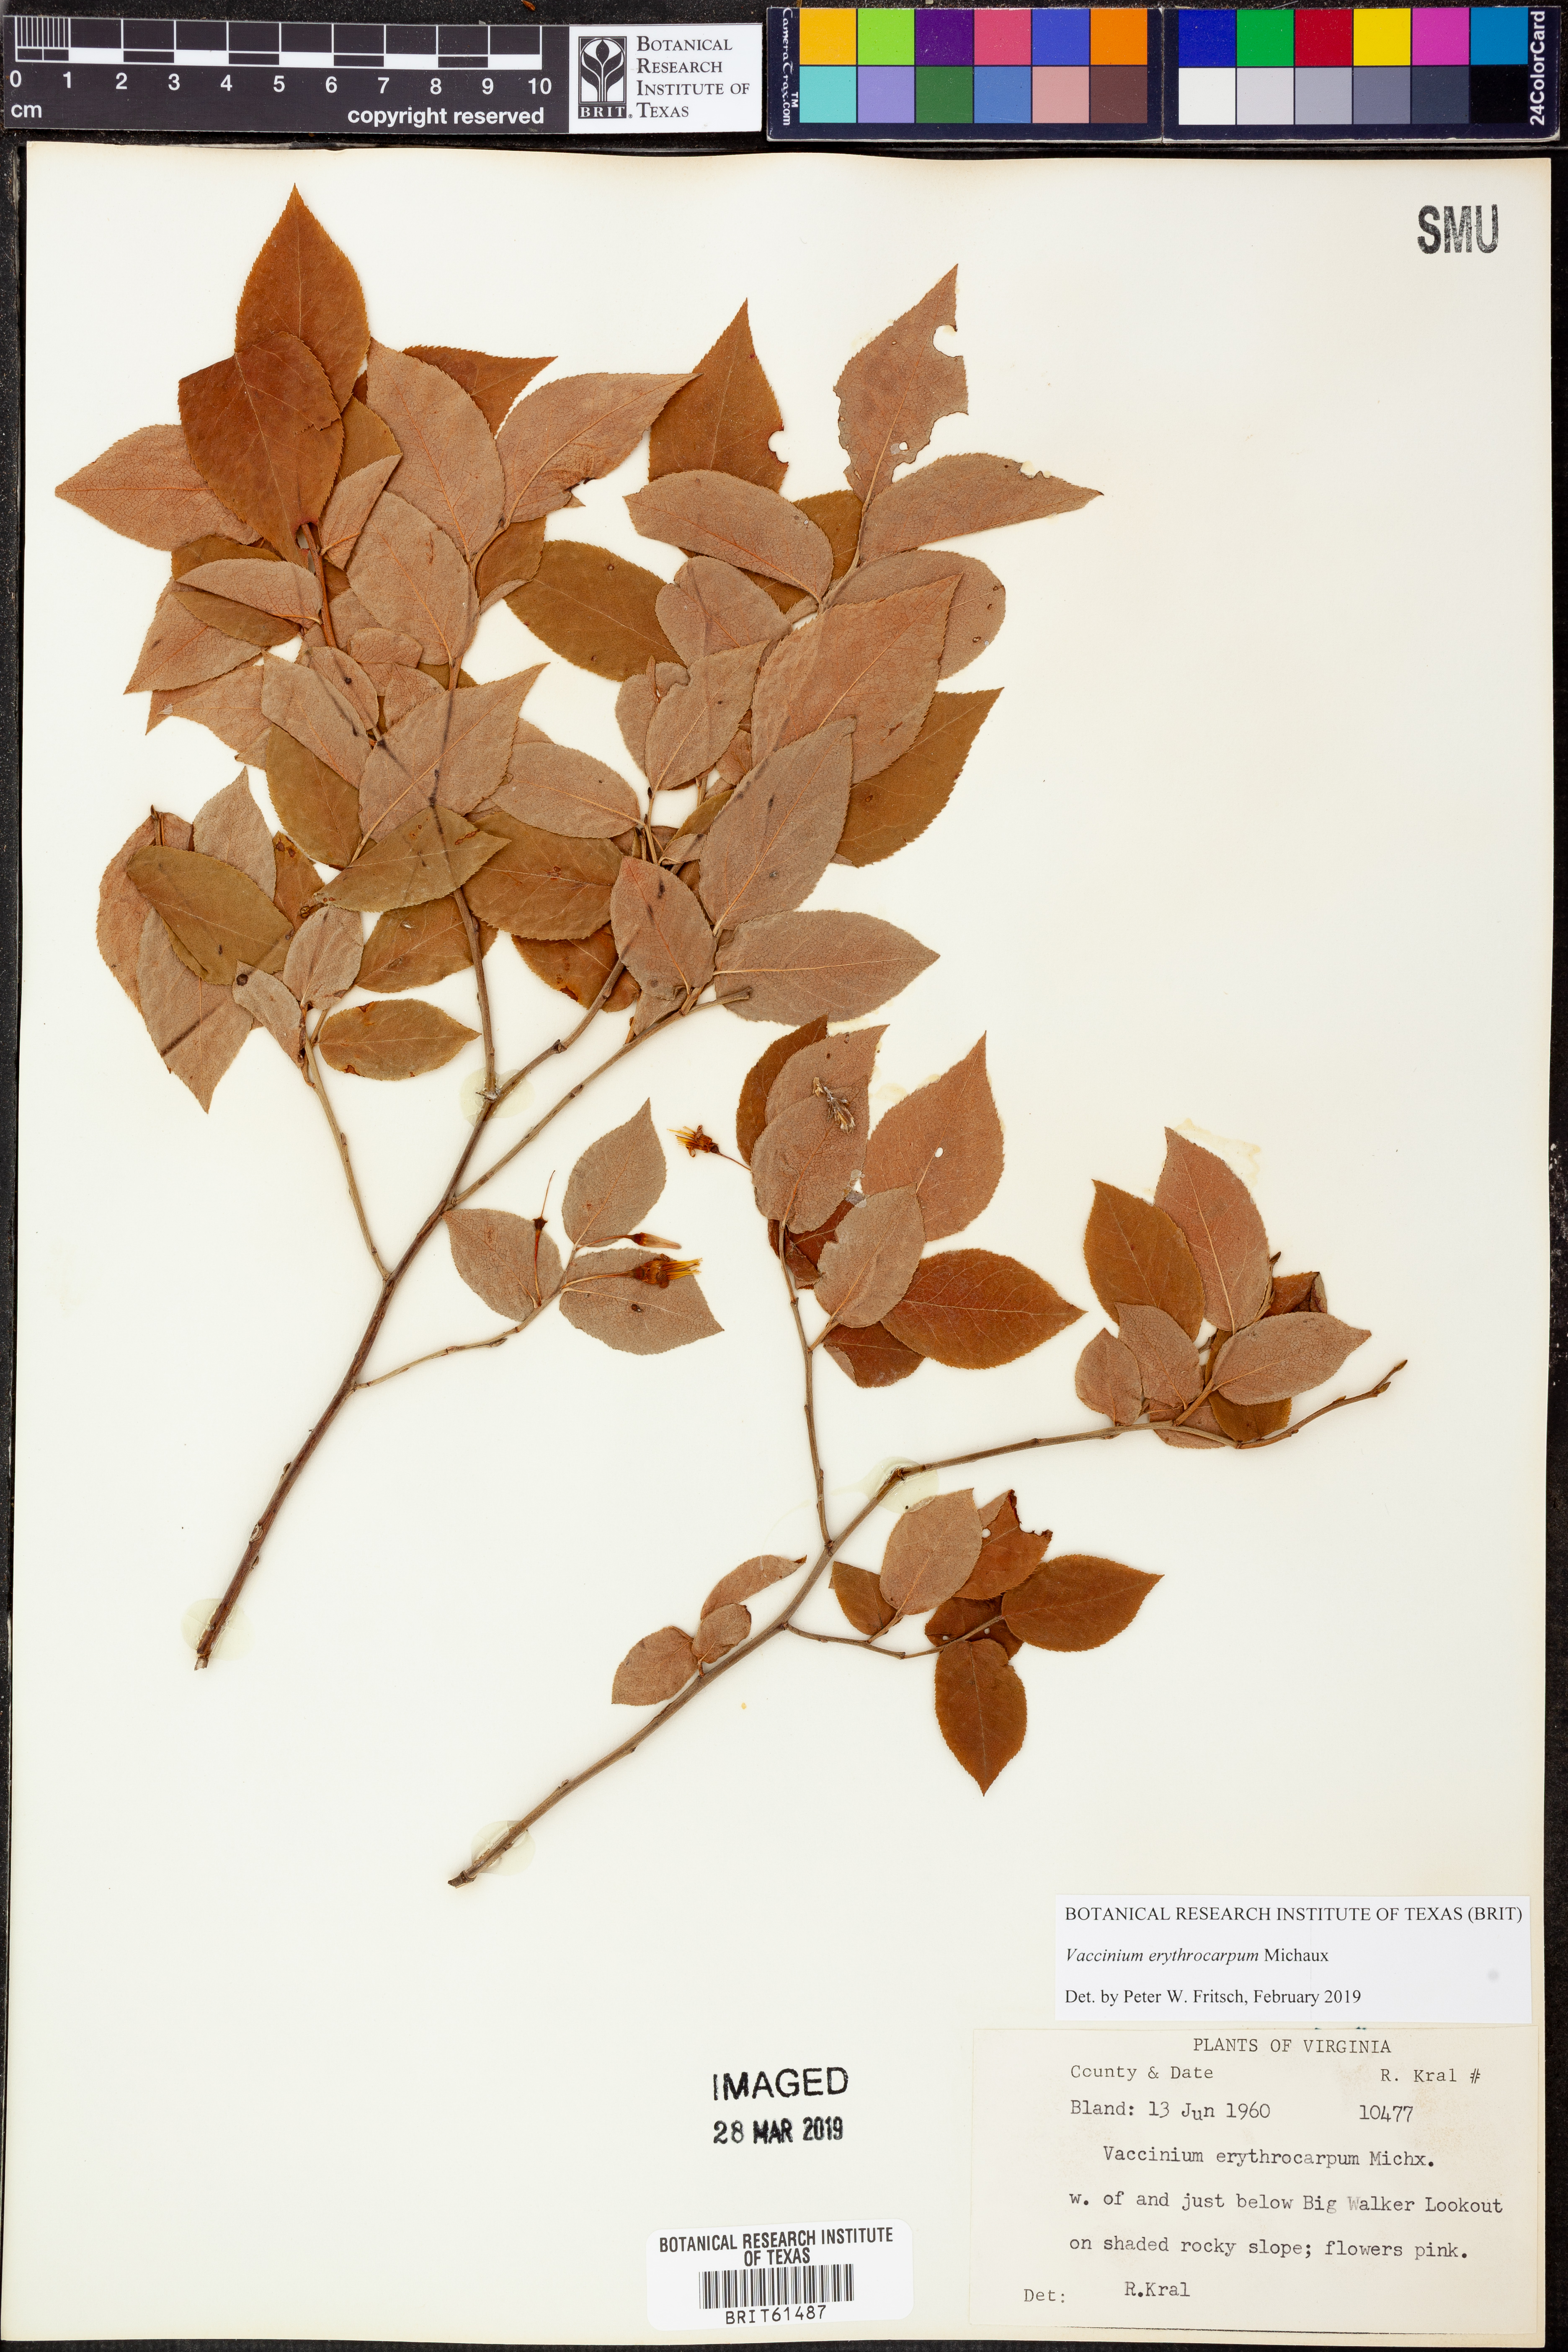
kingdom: Plantae
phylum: Tracheophyta
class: Magnoliopsida
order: Ericales
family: Ericaceae
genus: Vaccinium
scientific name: Vaccinium erythrocarpum
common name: Bearberry
